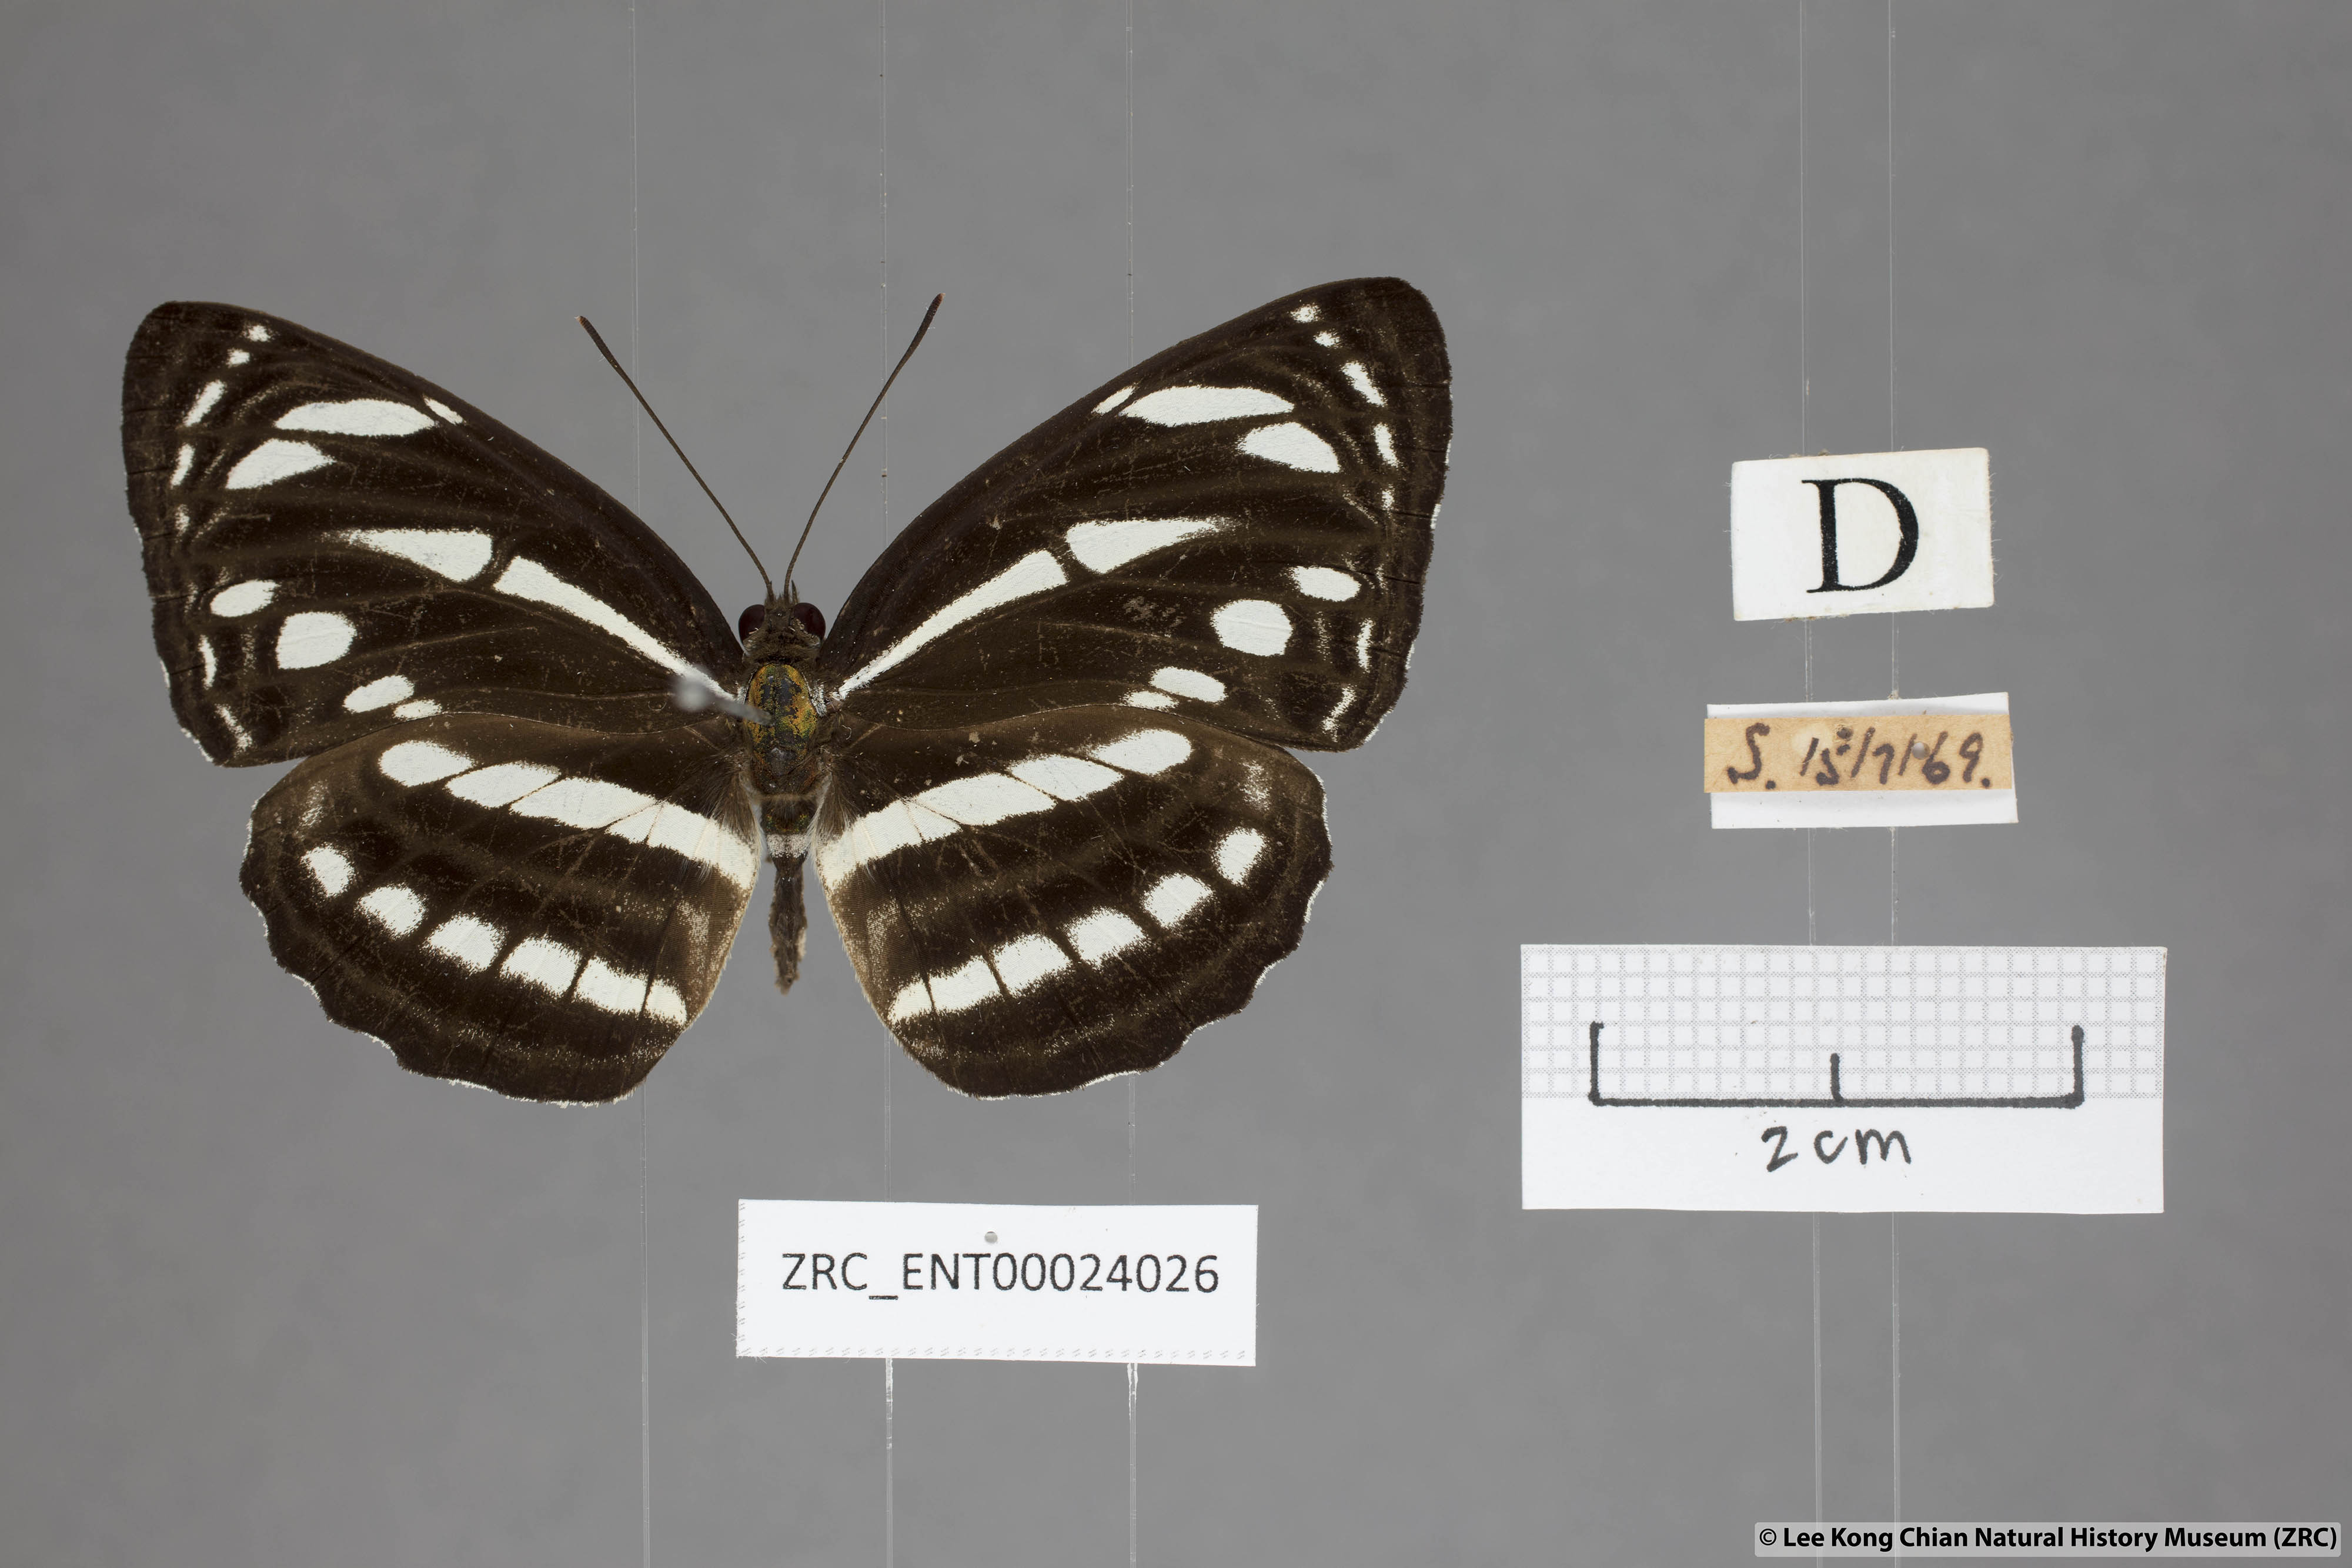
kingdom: Animalia
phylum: Arthropoda
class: Insecta
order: Lepidoptera
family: Nymphalidae
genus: Neptis
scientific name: Neptis leucoporus
